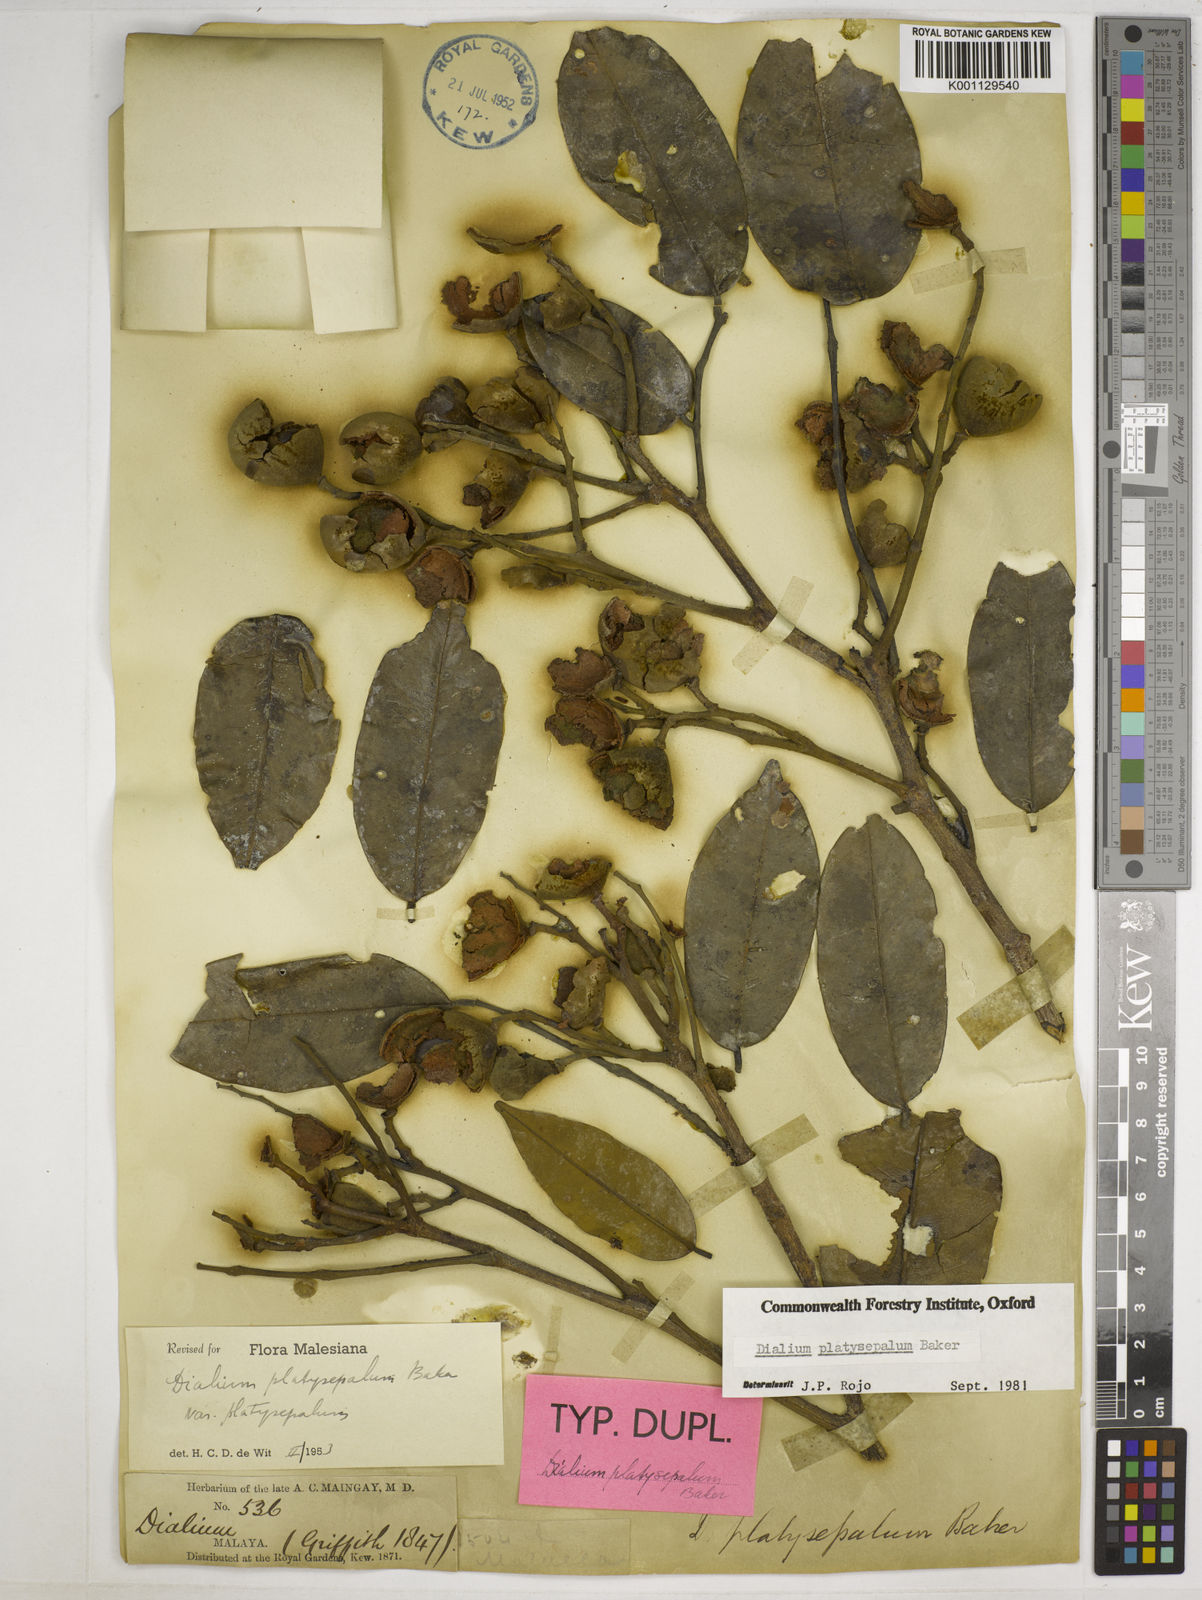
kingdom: Plantae
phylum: Tracheophyta
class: Magnoliopsida
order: Fabales
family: Fabaceae
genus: Dialium
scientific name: Dialium platysepalum
